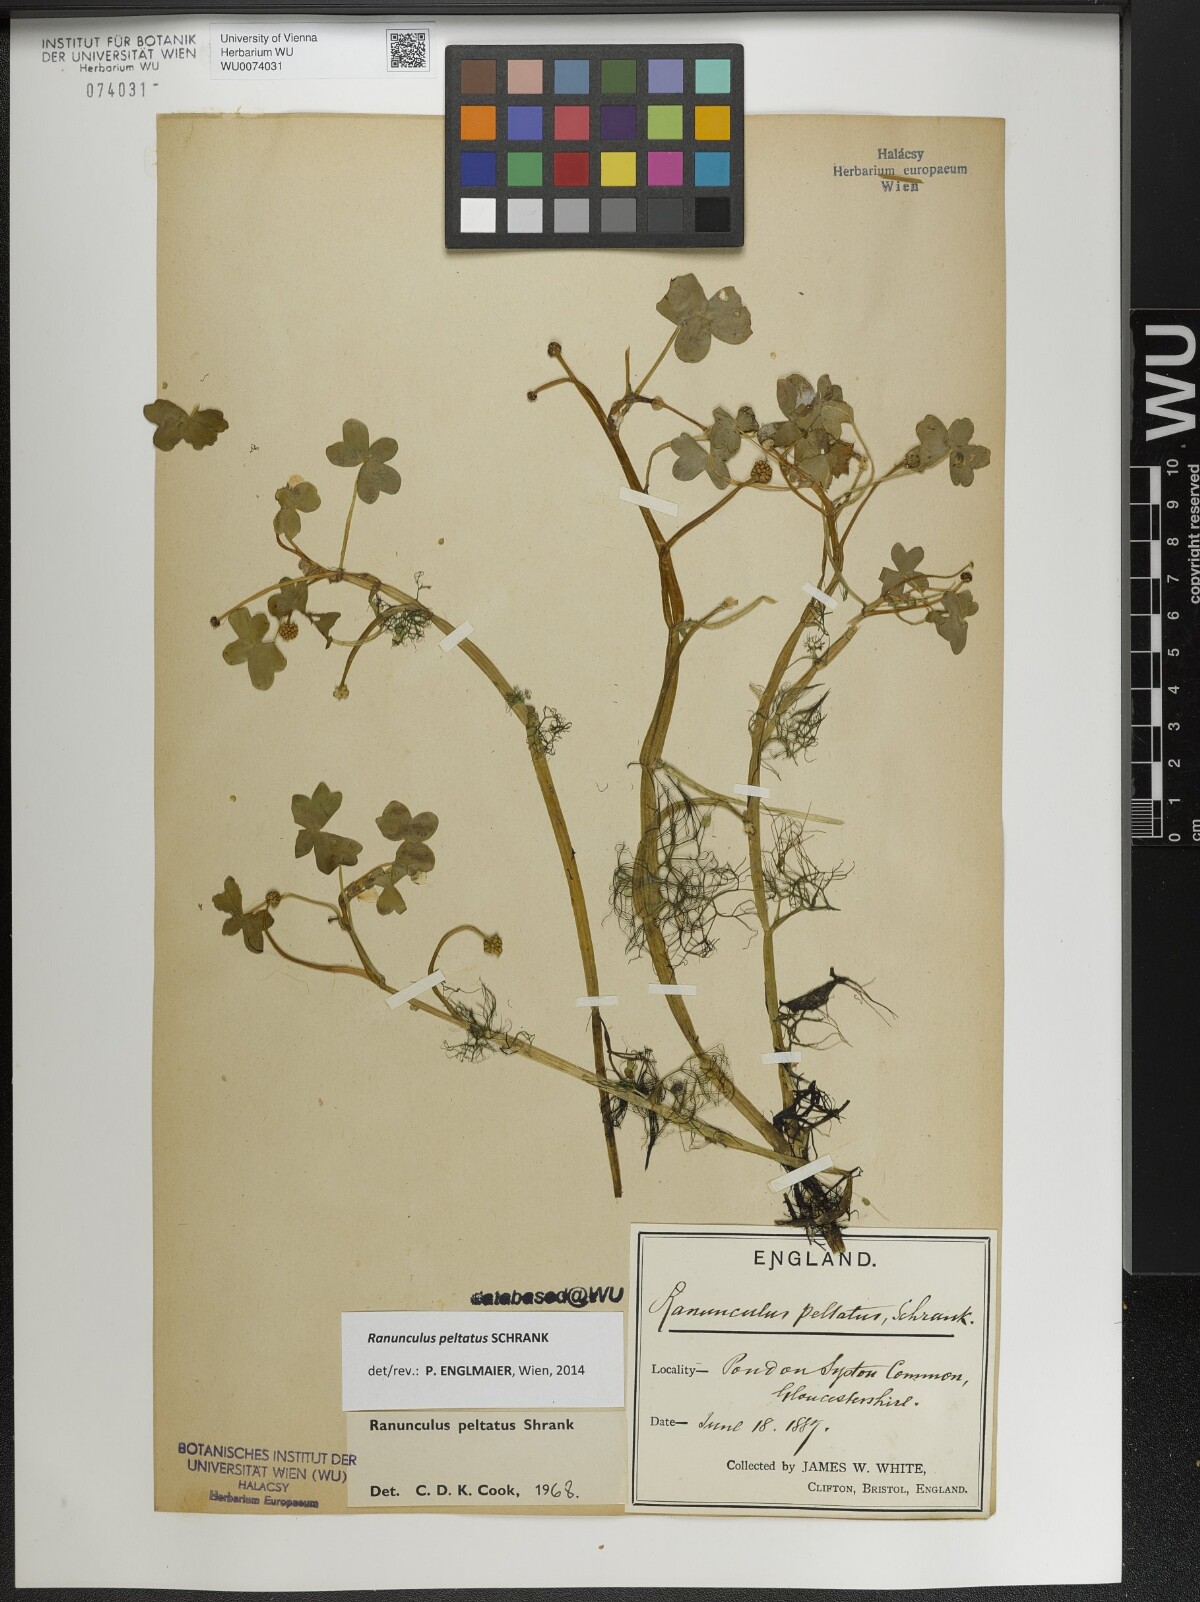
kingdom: Plantae
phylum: Tracheophyta
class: Magnoliopsida
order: Ranunculales
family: Ranunculaceae
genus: Ranunculus
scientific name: Ranunculus peltatus
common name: Pond water-crowfoot
